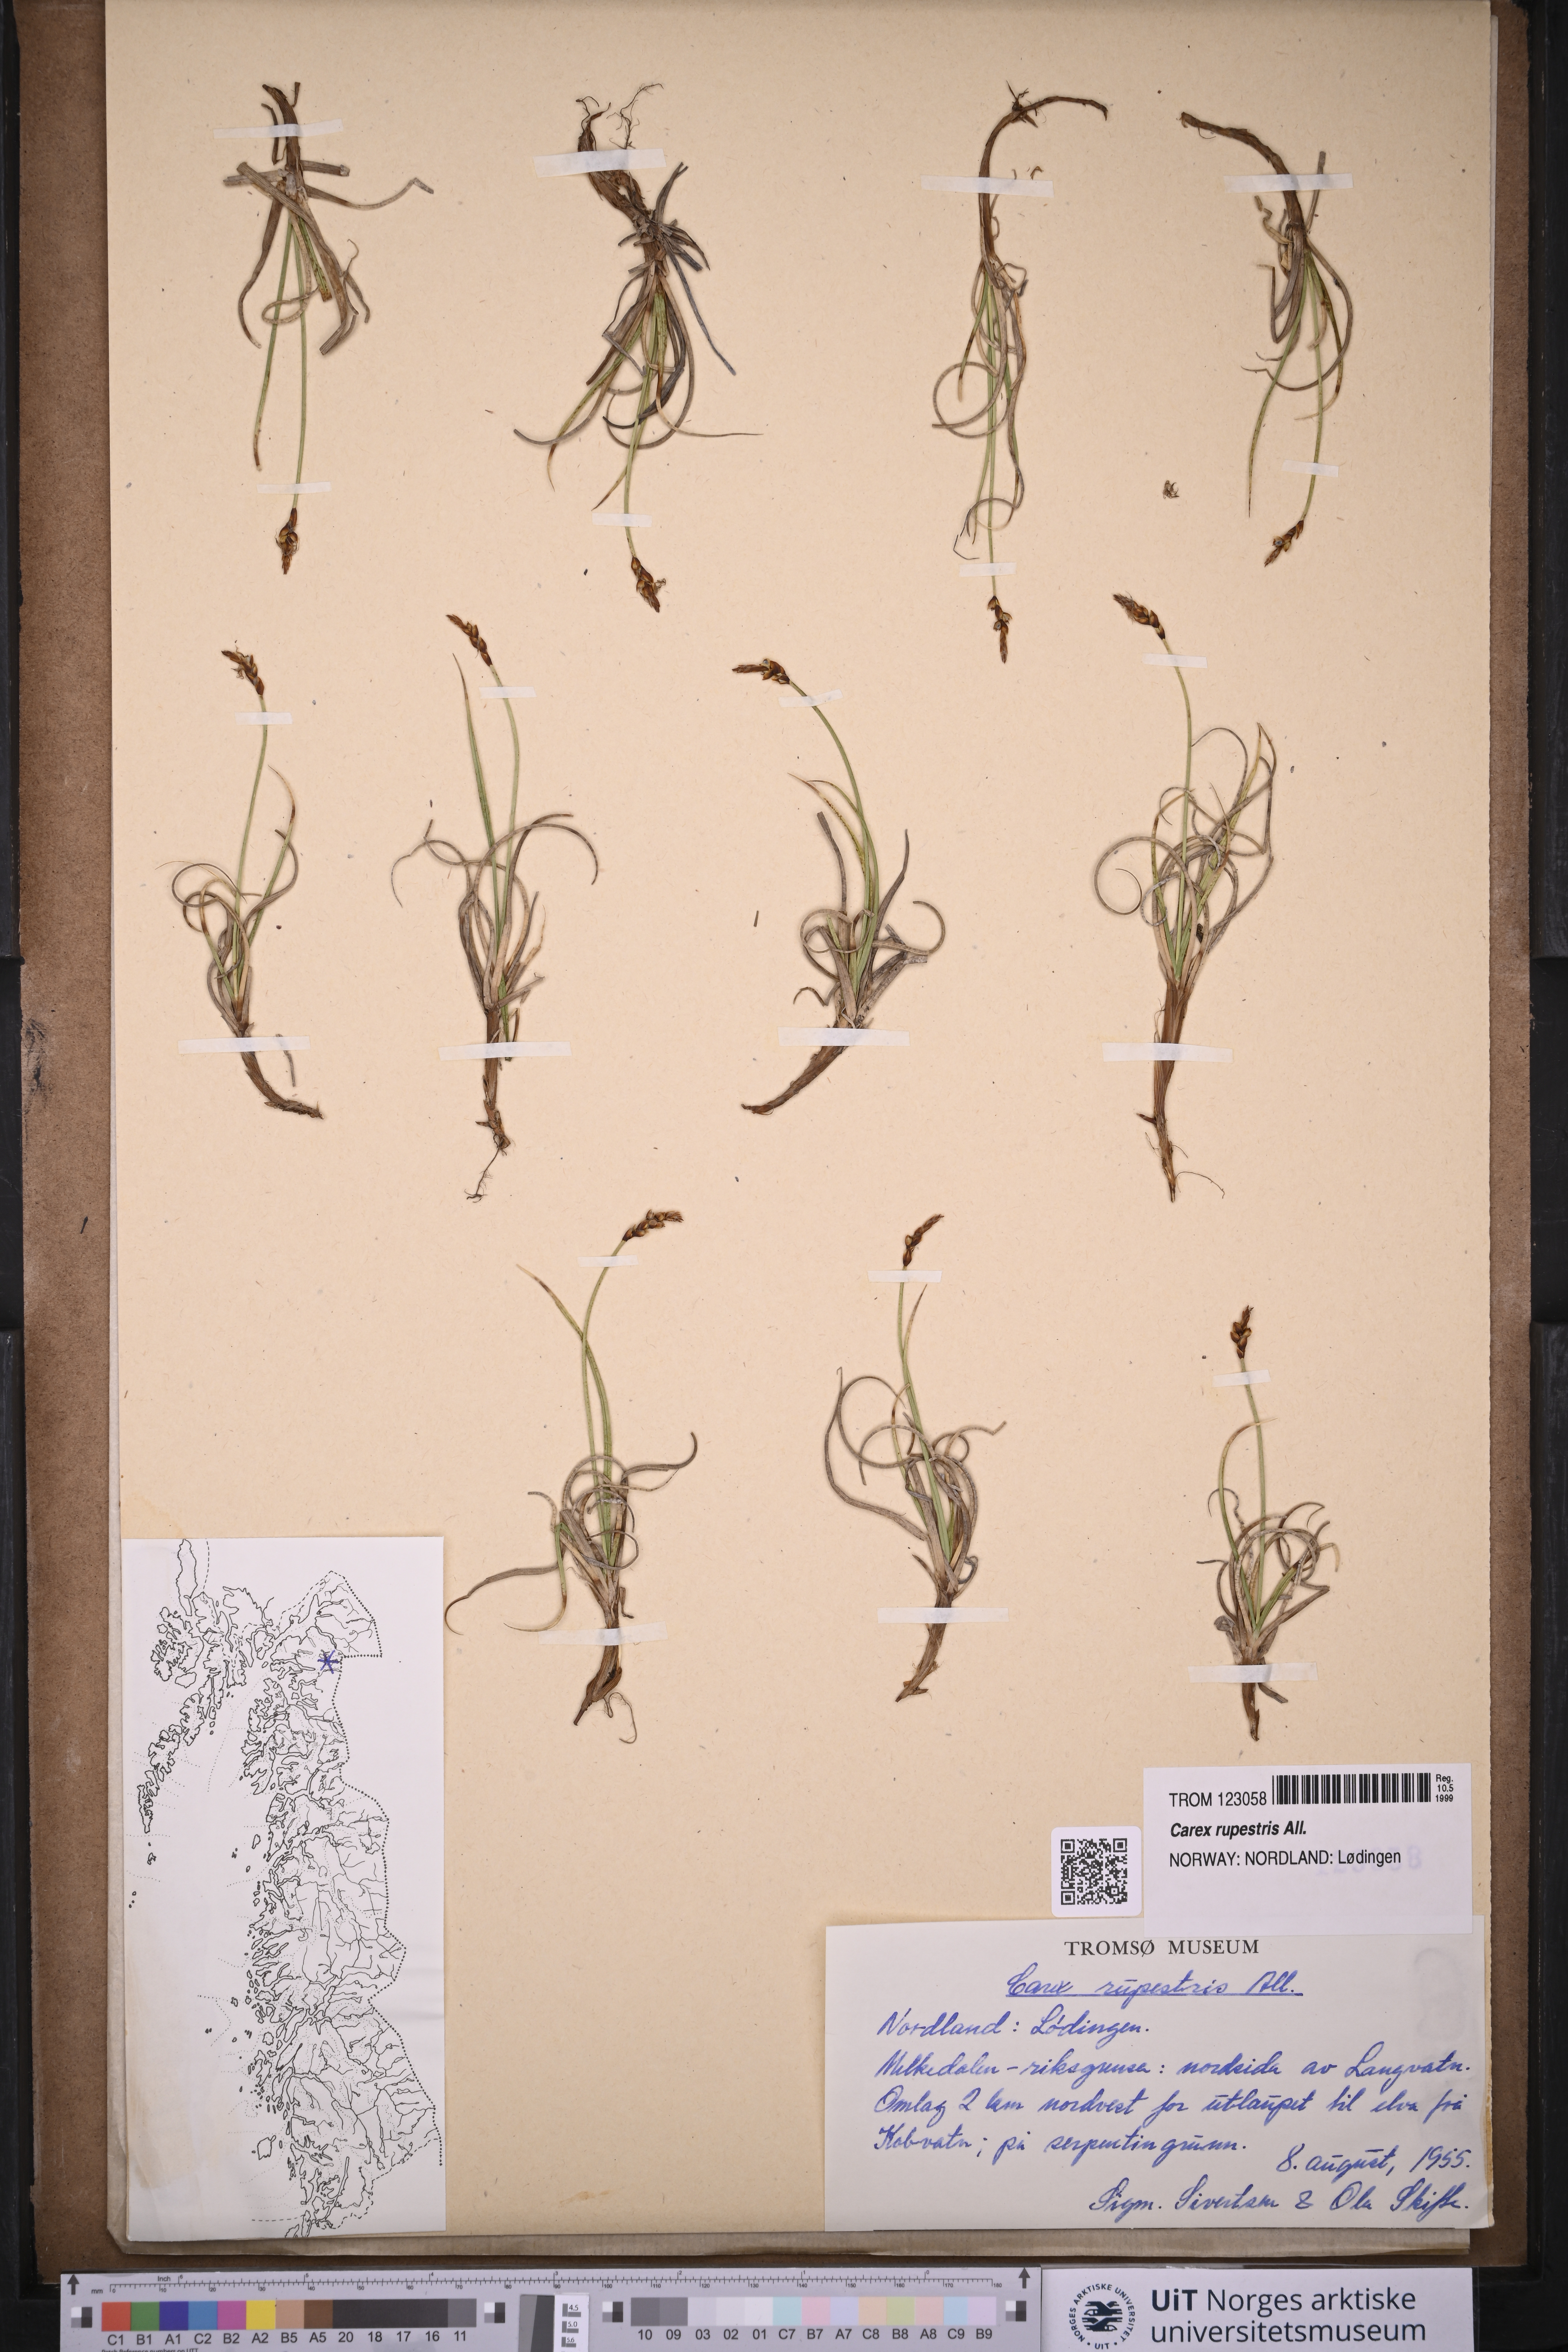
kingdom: Plantae
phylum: Tracheophyta
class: Liliopsida
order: Poales
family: Cyperaceae
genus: Carex
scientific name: Carex rupestris
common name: Rock sedge
